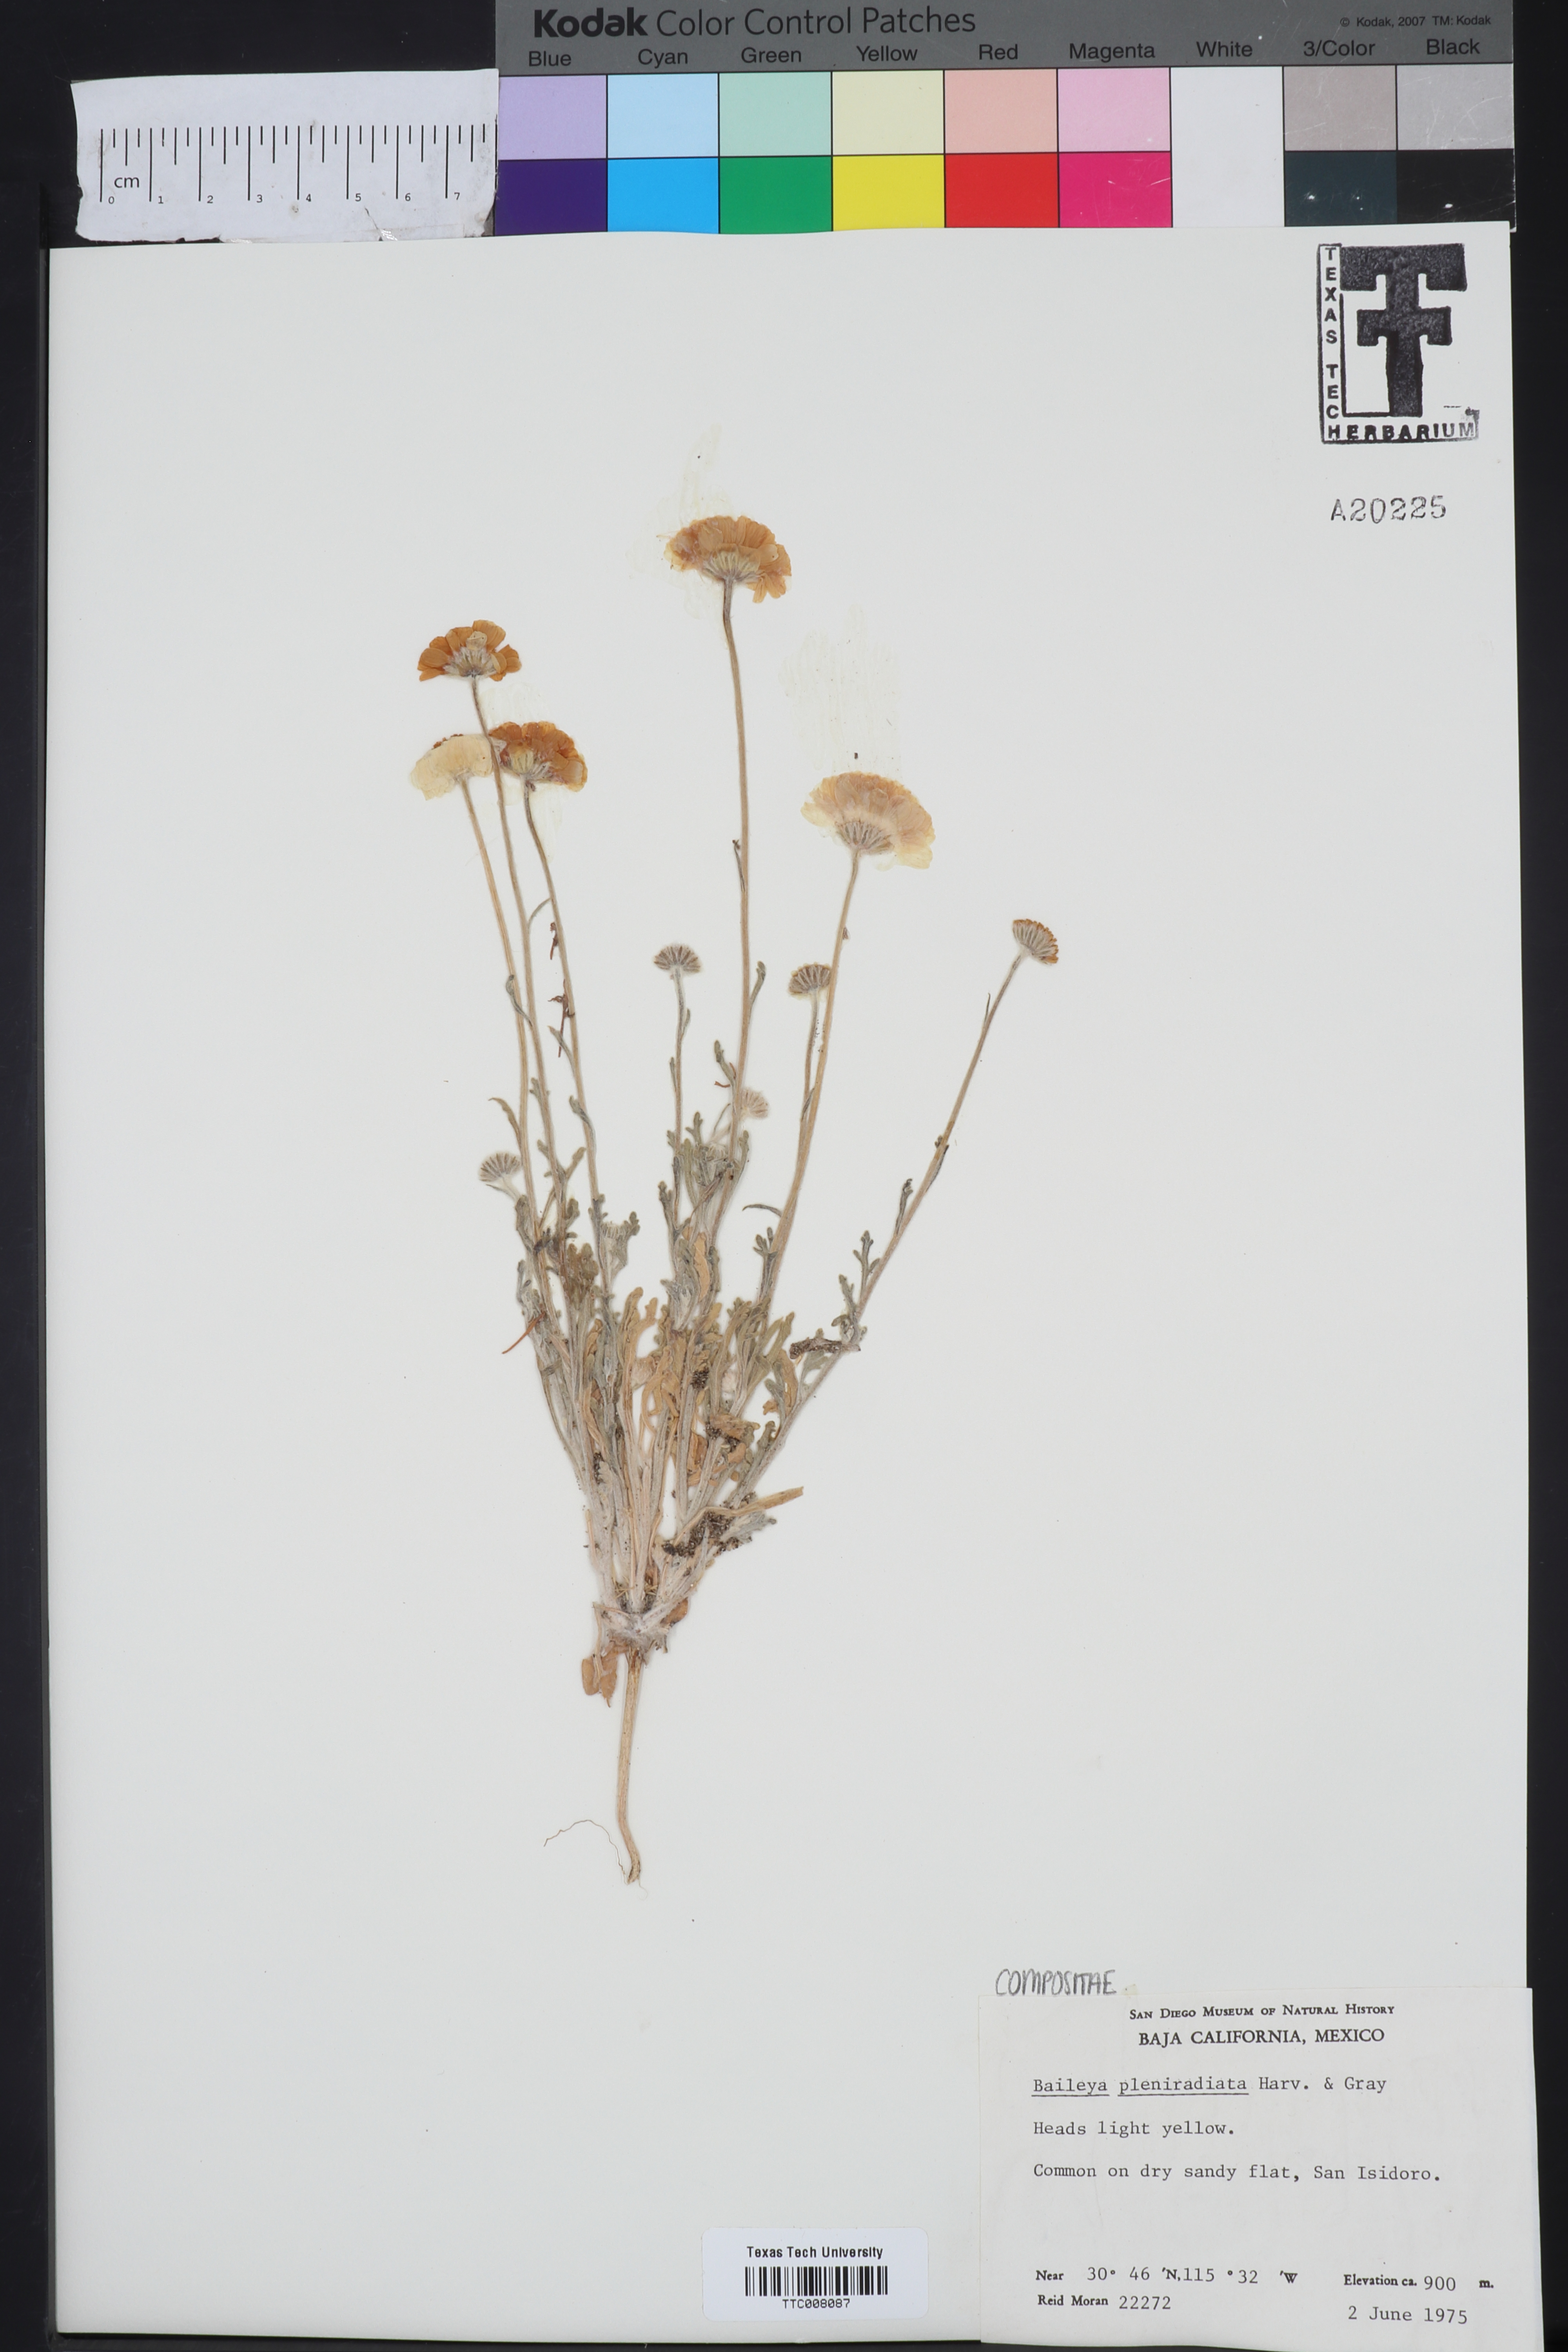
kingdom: Plantae
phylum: Tracheophyta
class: Magnoliopsida
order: Asterales
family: Asteraceae
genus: Baileya
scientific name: Baileya pleniradiata
